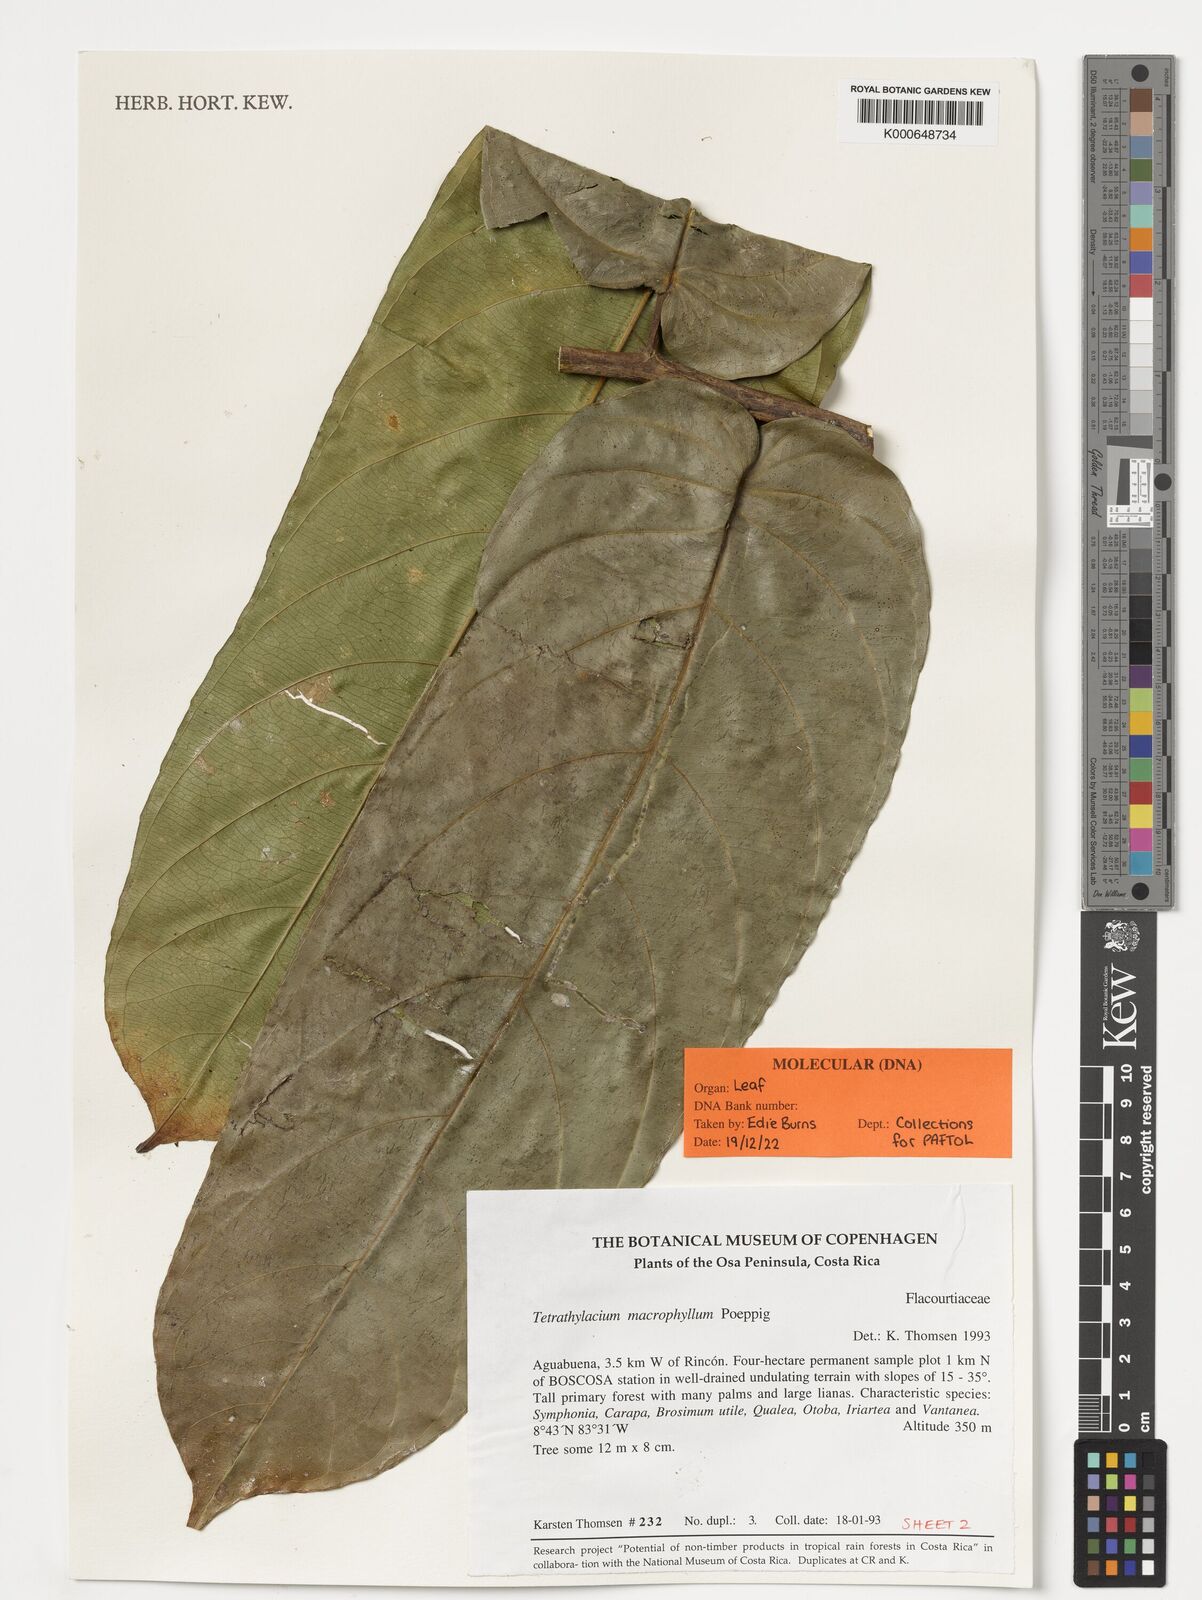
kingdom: Plantae
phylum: Tracheophyta
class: Magnoliopsida
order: Malpighiales
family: Salicaceae
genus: Tetrathylacium
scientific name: Tetrathylacium macrophyllum
